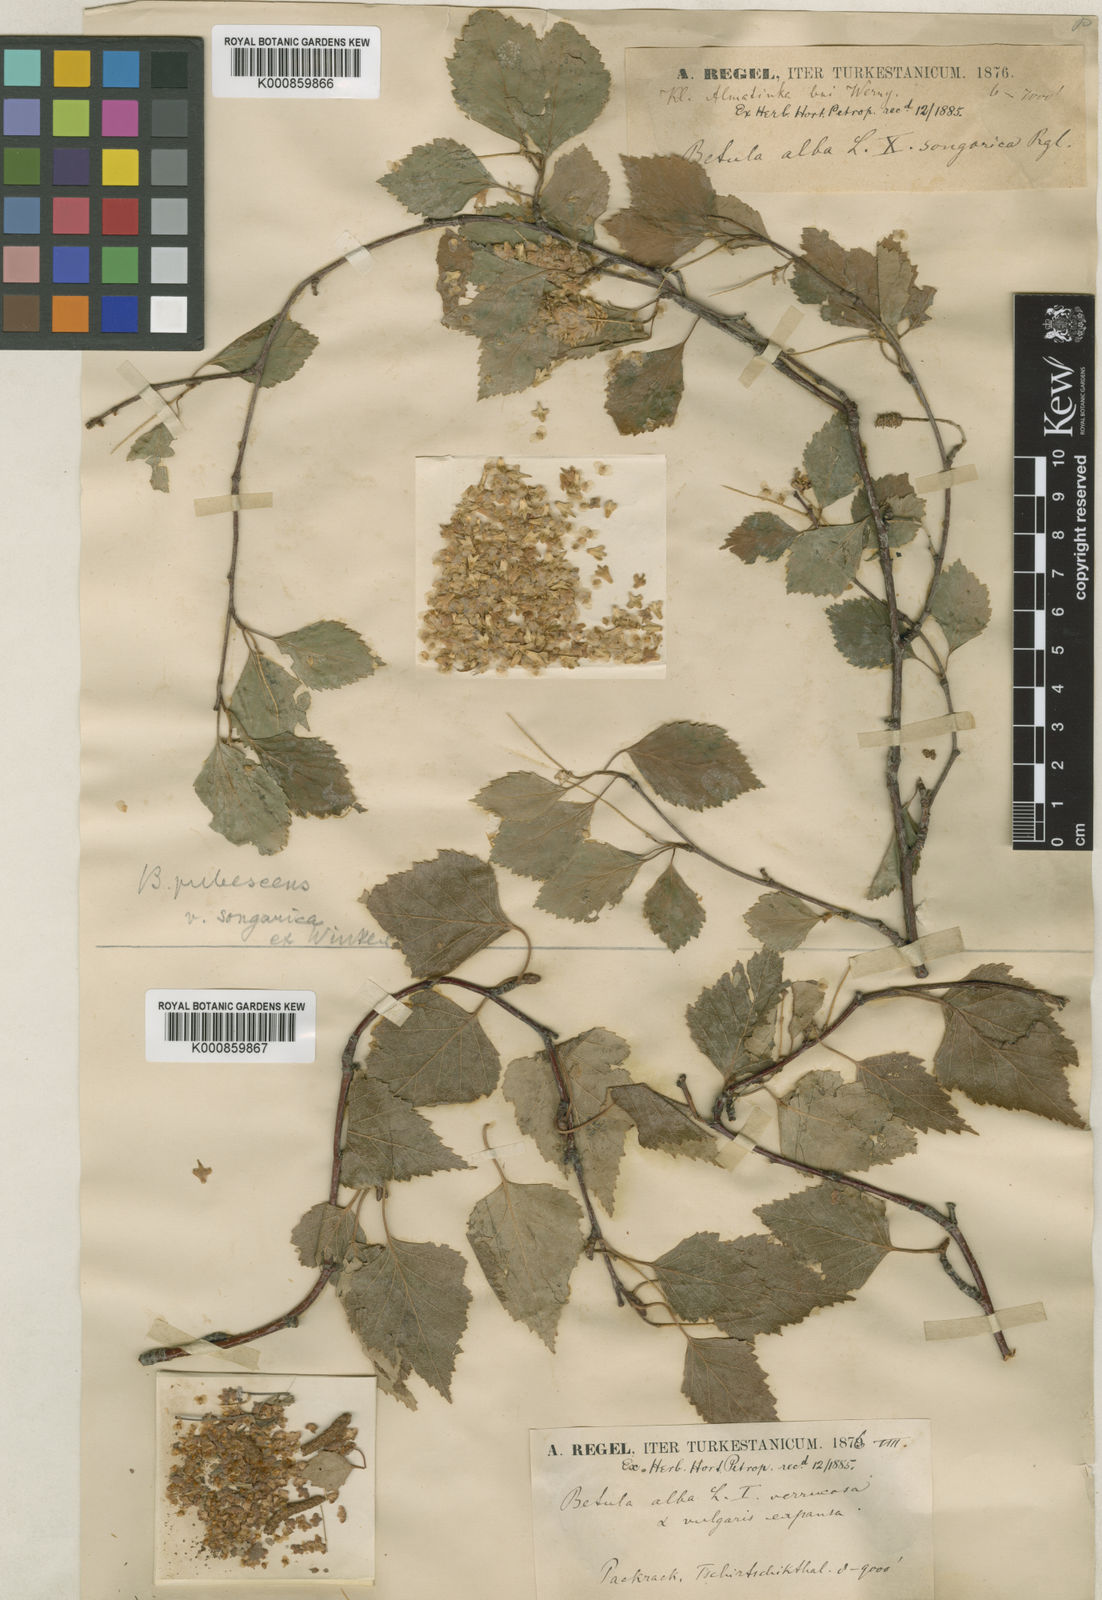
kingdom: Plantae
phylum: Tracheophyta
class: Magnoliopsida
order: Fagales
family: Betulaceae
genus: Betula
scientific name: Betula pubescens
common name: Downy birch
